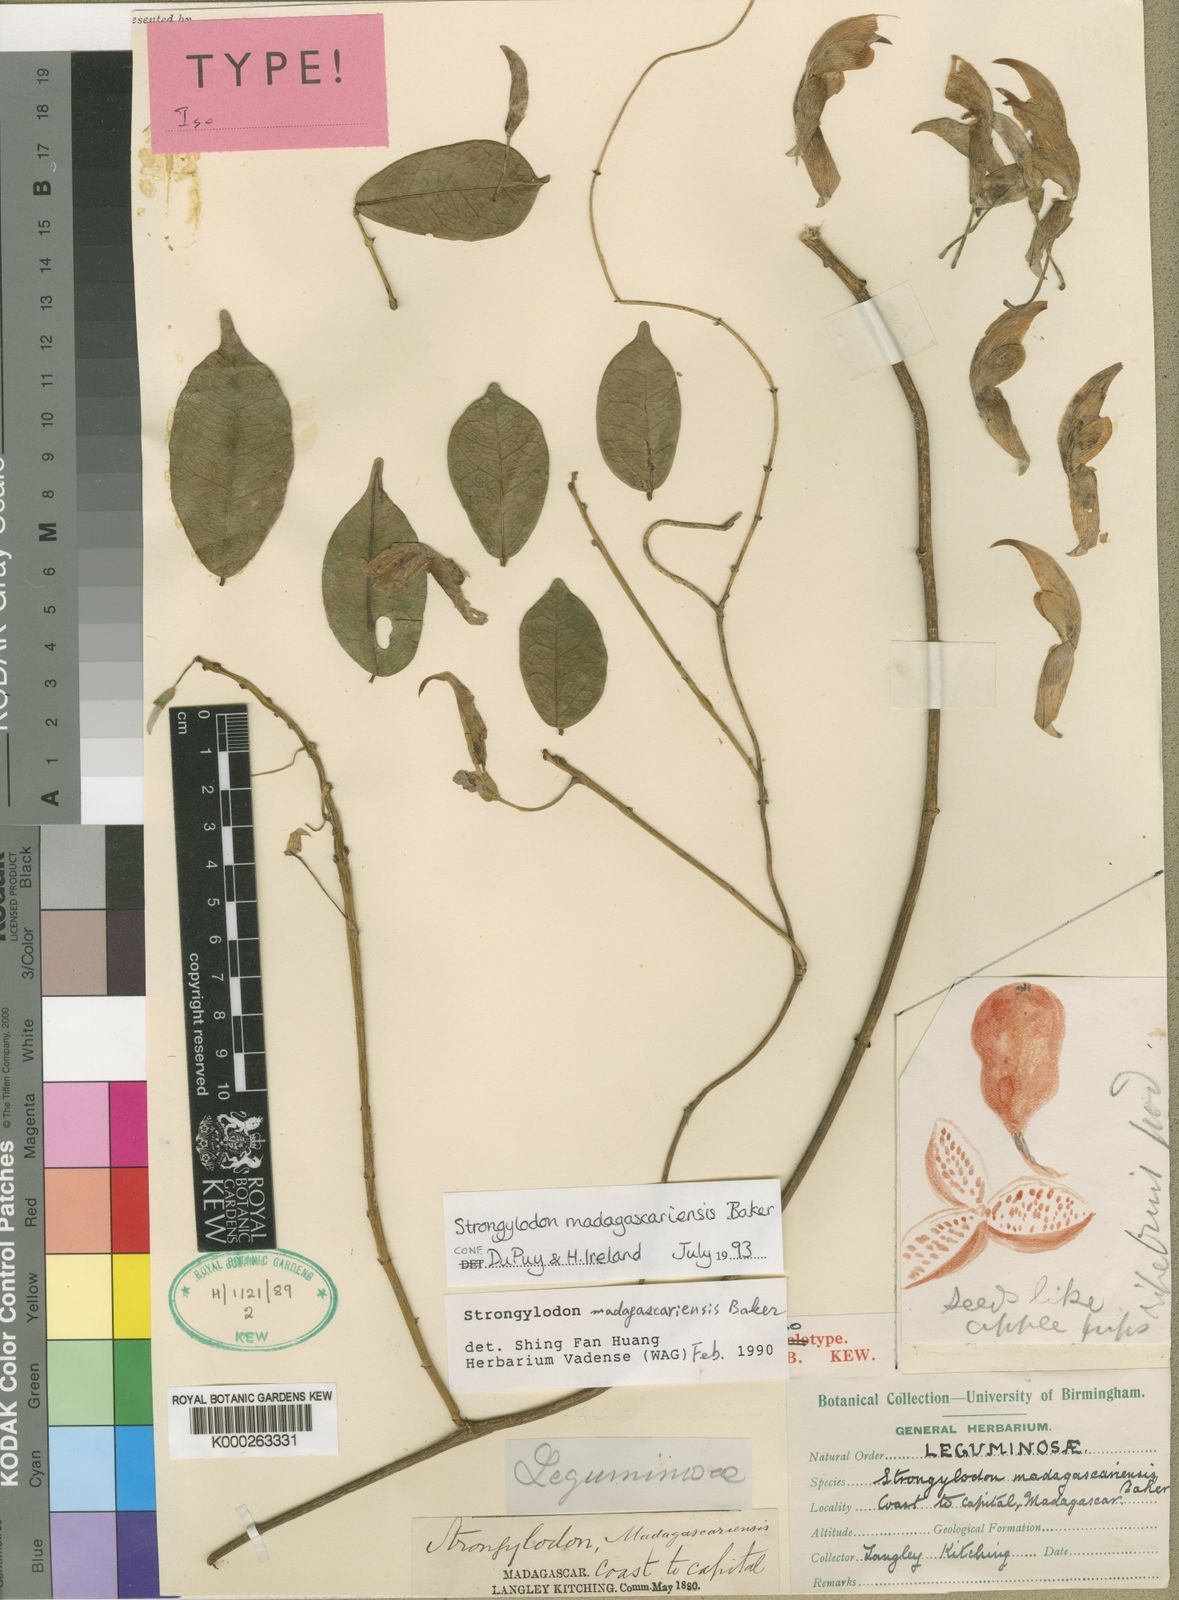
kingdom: Plantae
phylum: Tracheophyta
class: Magnoliopsida
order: Fabales
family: Fabaceae
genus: Strongylodon
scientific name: Strongylodon madagascariensis
